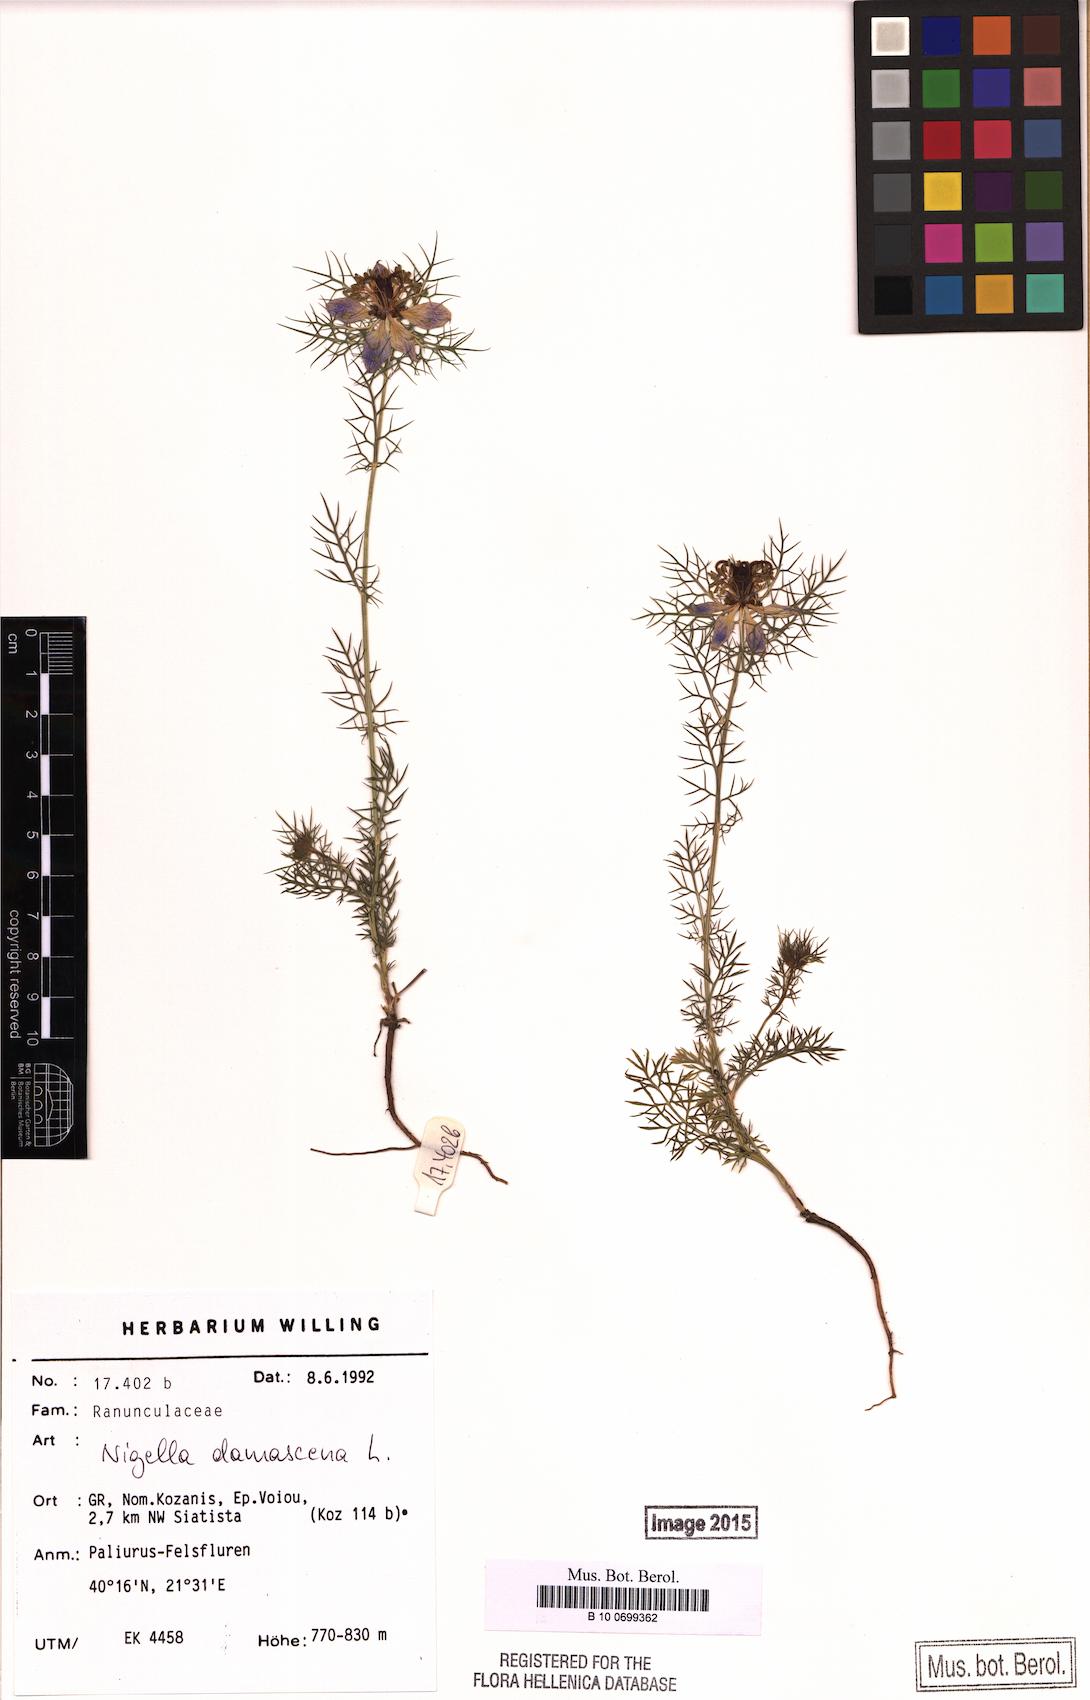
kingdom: Plantae
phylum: Tracheophyta
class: Magnoliopsida
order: Ranunculales
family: Ranunculaceae
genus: Nigella
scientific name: Nigella damascena
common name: Love-in-a-mist
